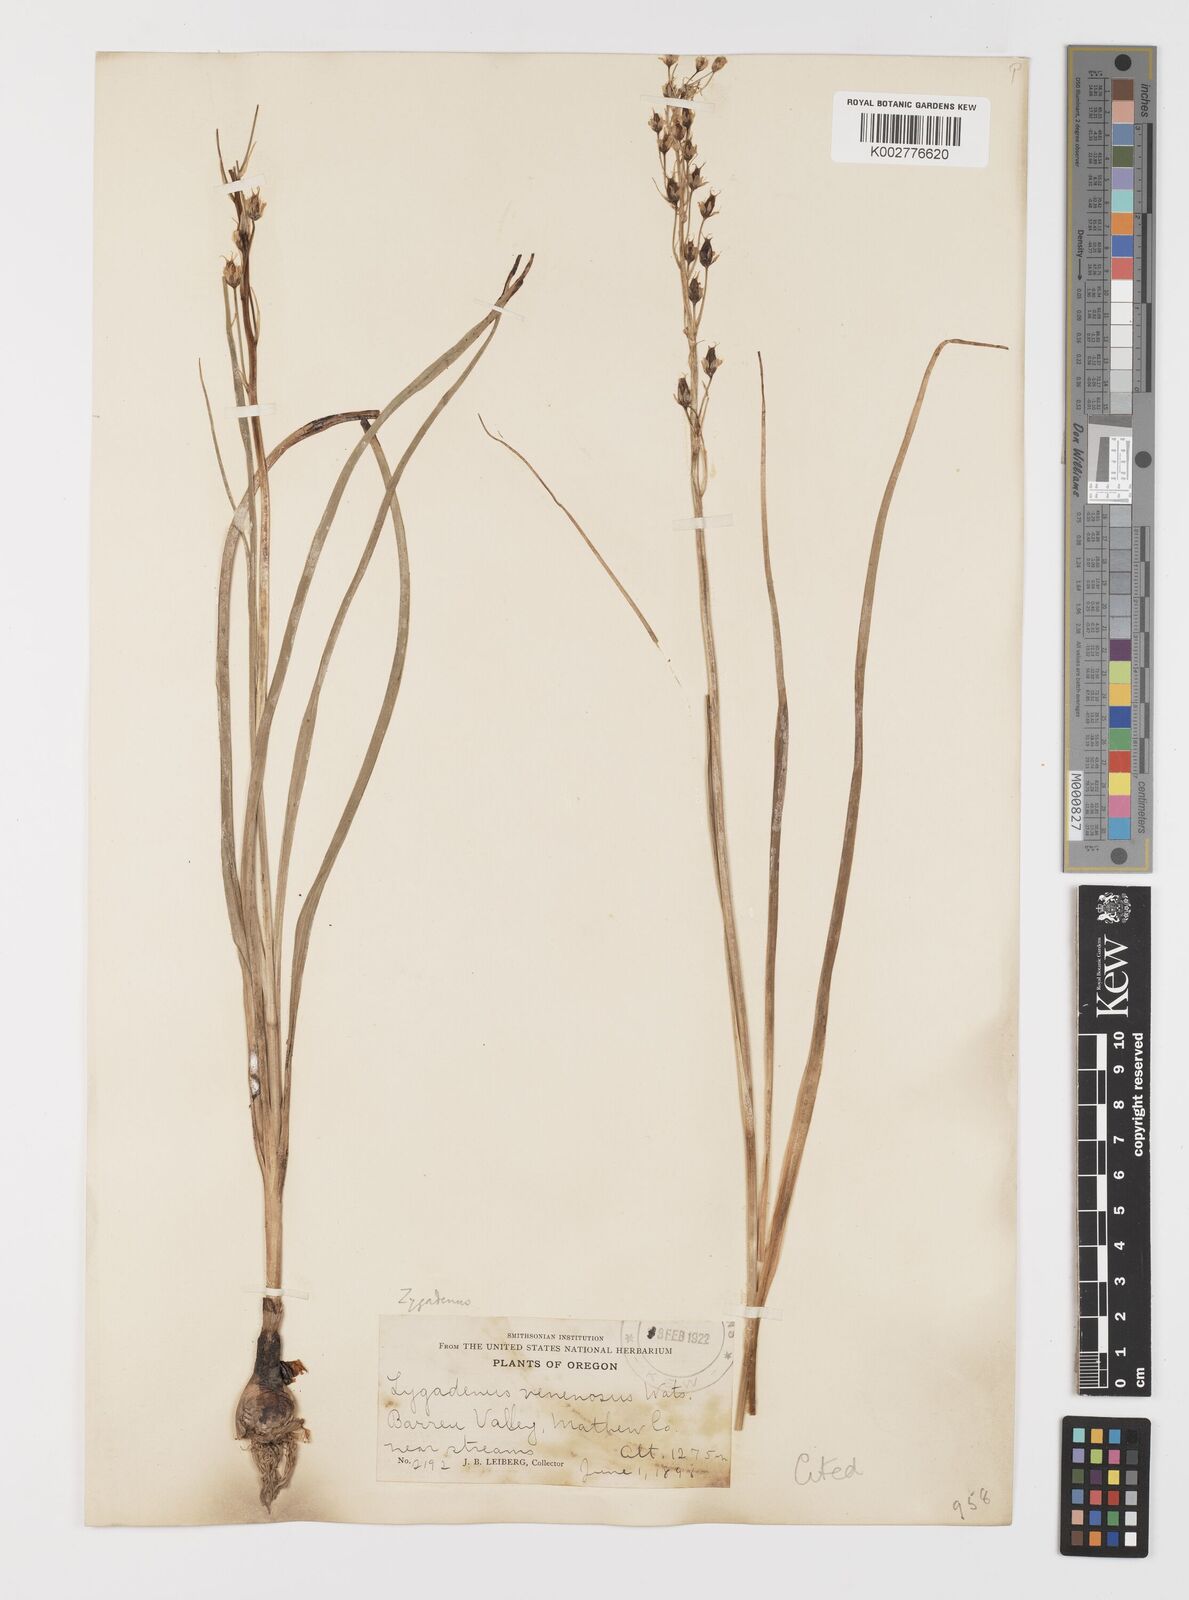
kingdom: Plantae
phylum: Tracheophyta
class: Liliopsida
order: Liliales
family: Melanthiaceae
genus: Toxicoscordion
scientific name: Toxicoscordion venenosum
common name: Meadow death camas
